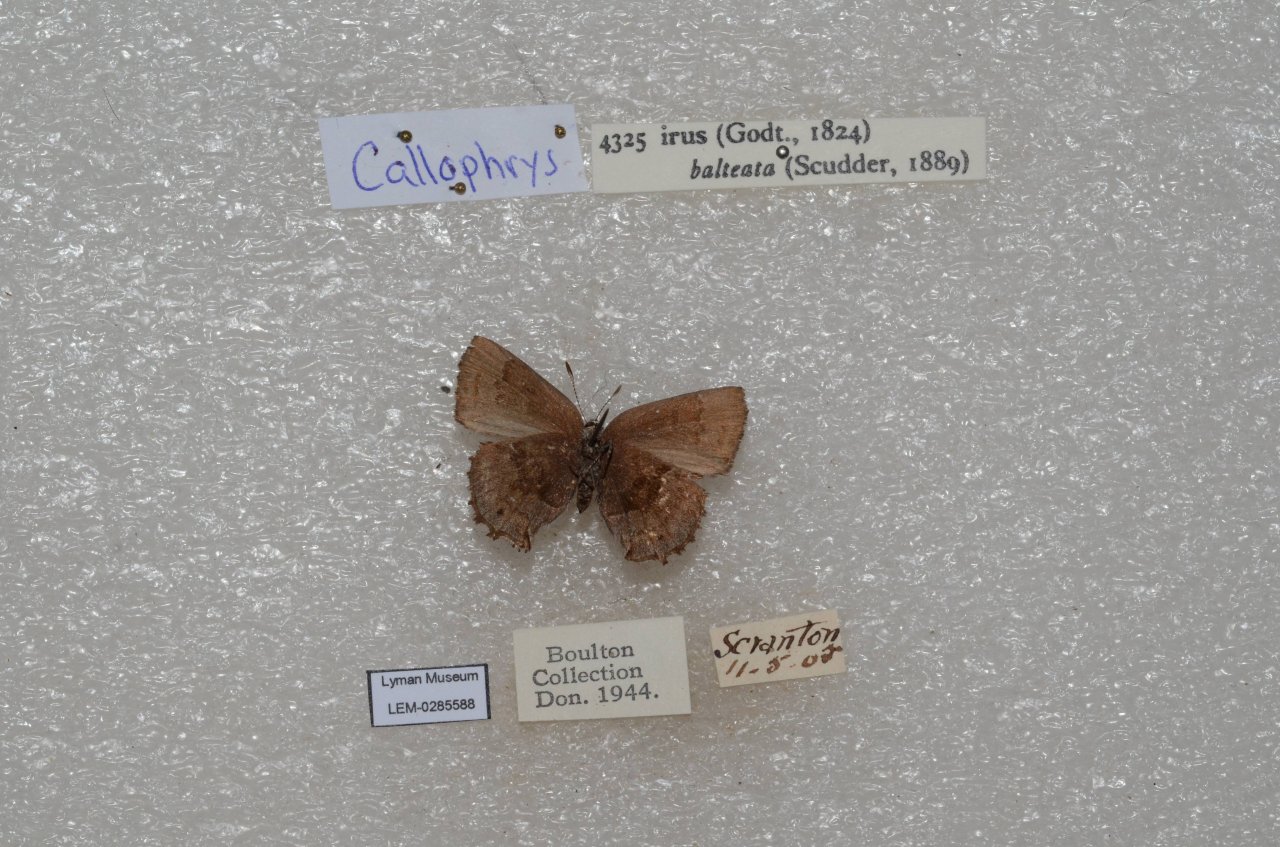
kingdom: Animalia
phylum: Arthropoda
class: Insecta
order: Lepidoptera
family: Lycaenidae
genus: Thecla
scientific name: Thecla irus
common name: Frosted Elfin
